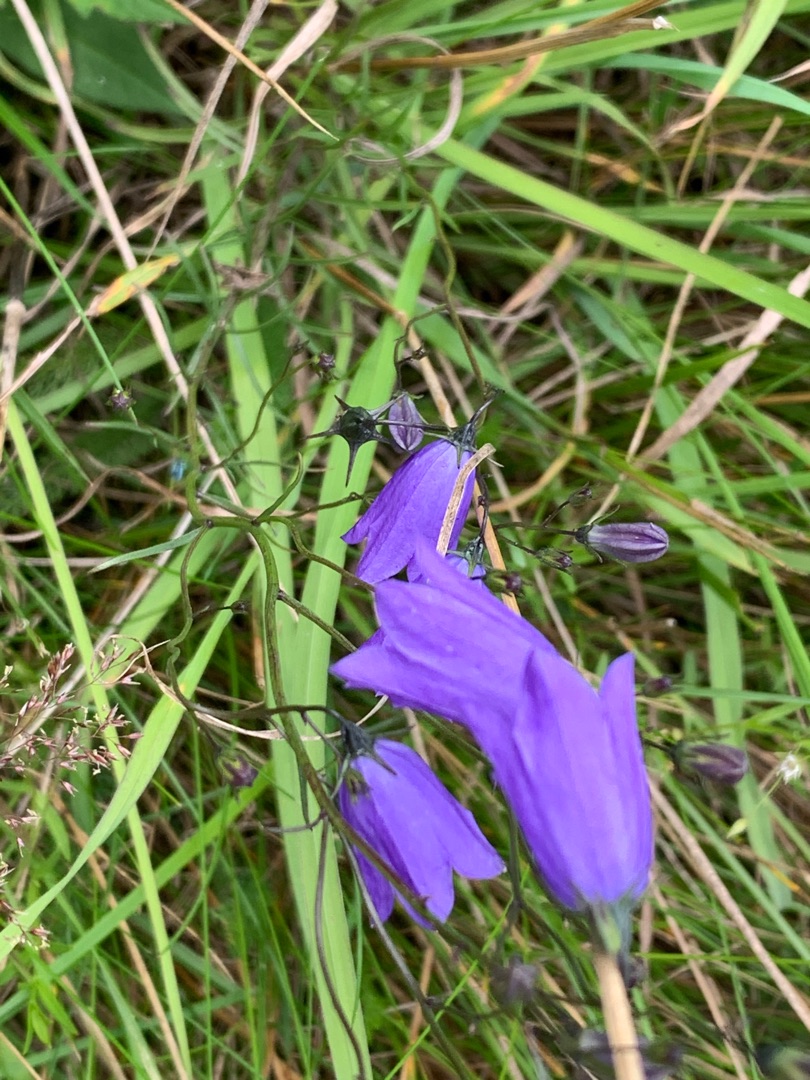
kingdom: Plantae
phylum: Tracheophyta
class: Magnoliopsida
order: Asterales
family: Campanulaceae
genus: Campanula
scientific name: Campanula rotundifolia
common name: Liden klokke
